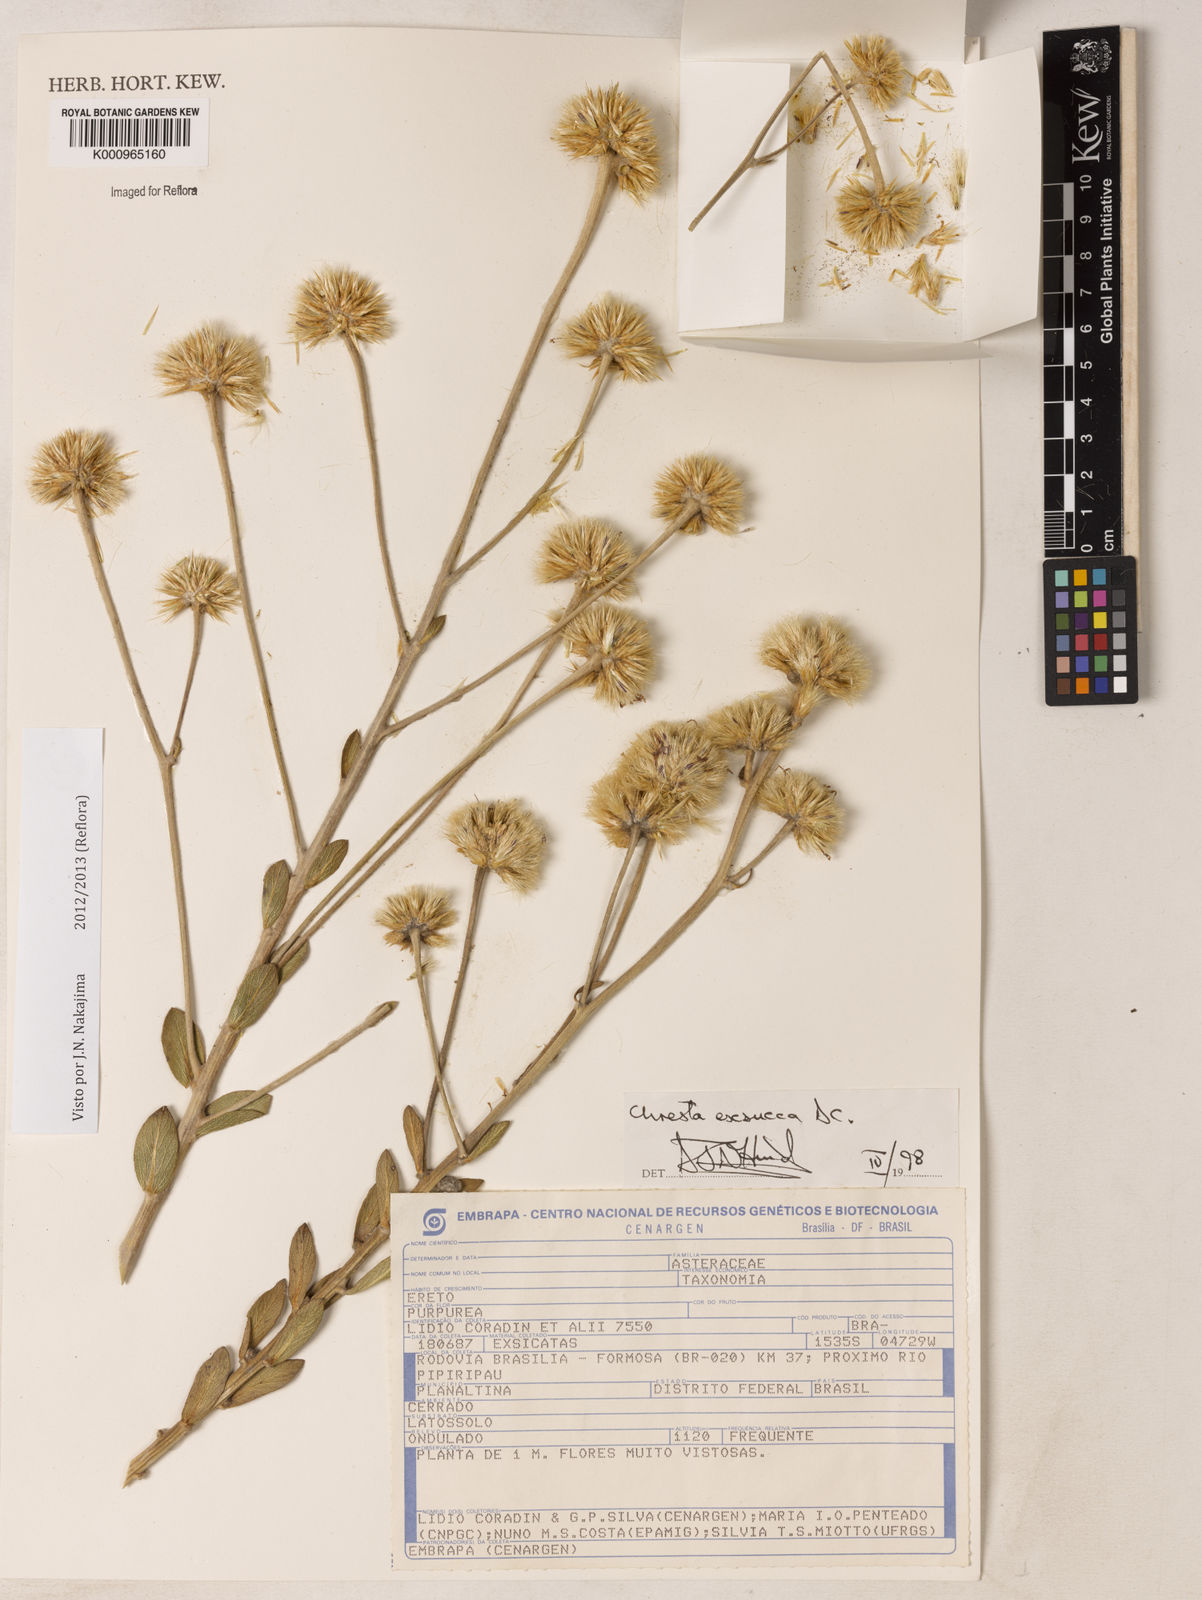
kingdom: Plantae
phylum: Tracheophyta
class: Magnoliopsida
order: Asterales
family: Asteraceae
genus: Chresta
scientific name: Chresta exsucca
